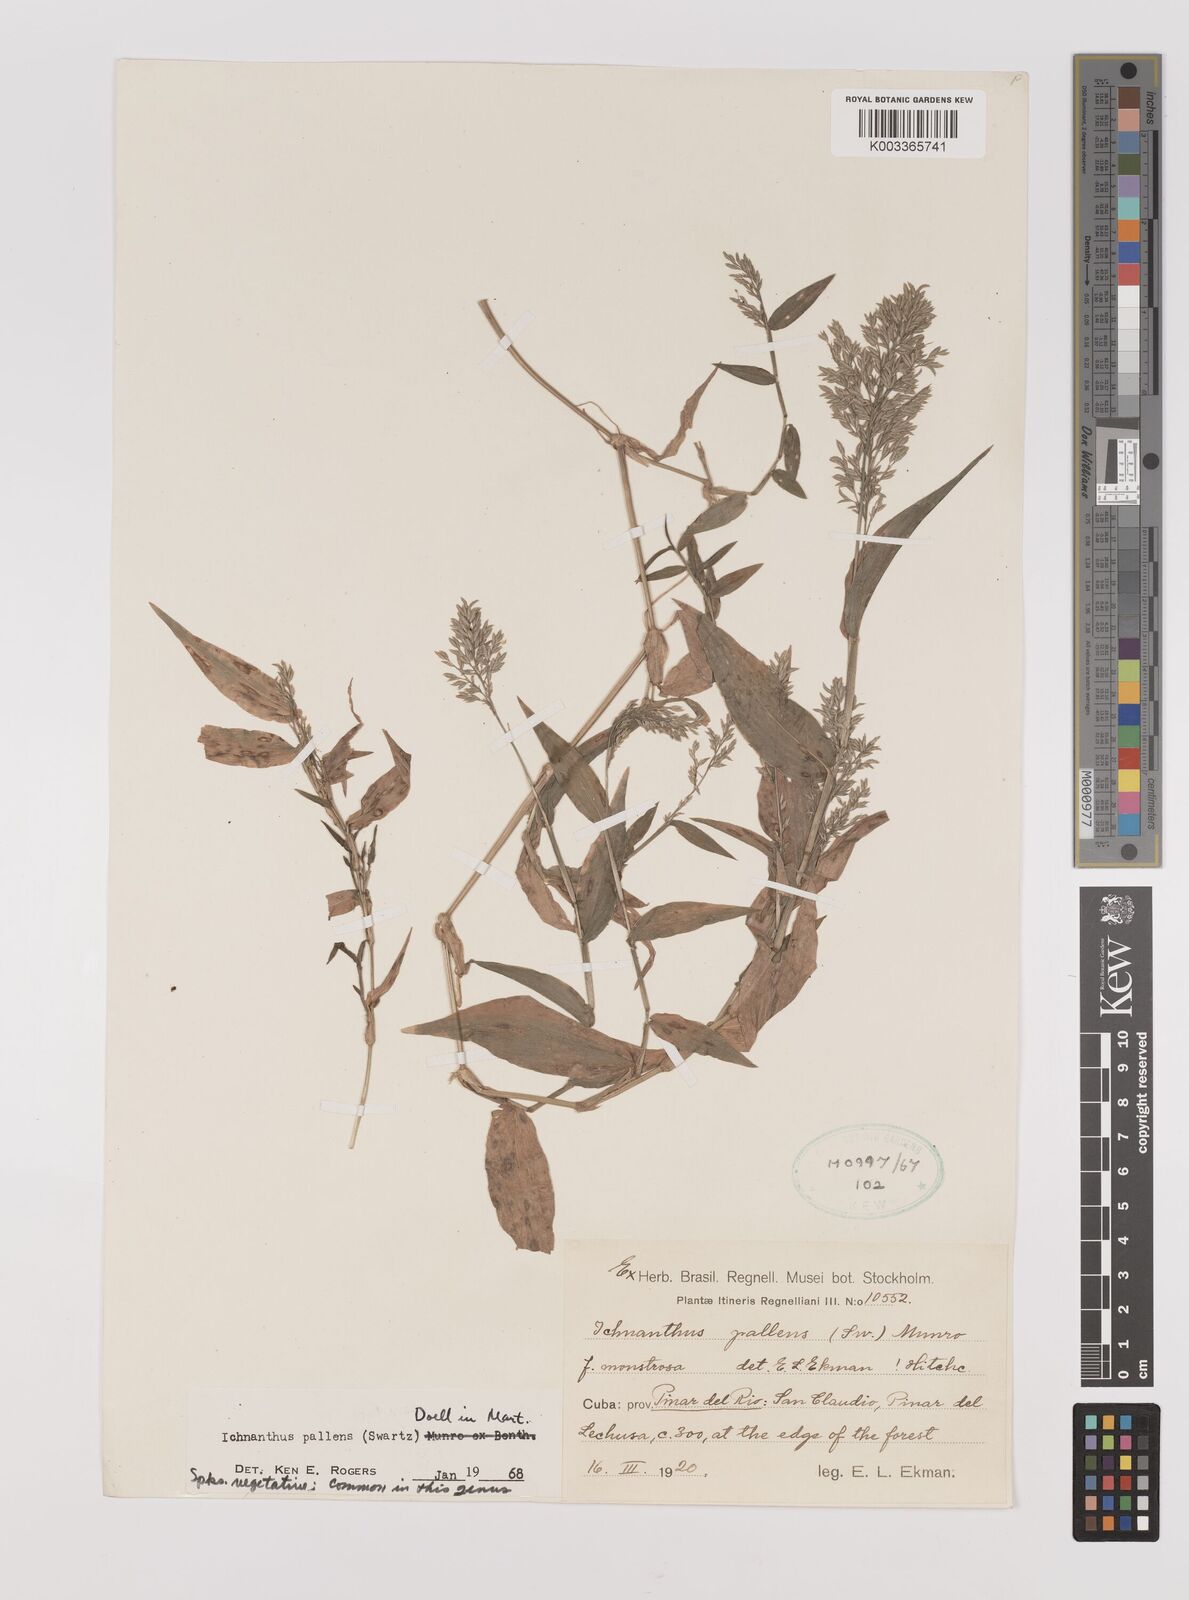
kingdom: Plantae
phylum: Tracheophyta
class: Liliopsida
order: Poales
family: Poaceae
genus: Ichnanthus
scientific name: Ichnanthus pallens
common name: Water grass
